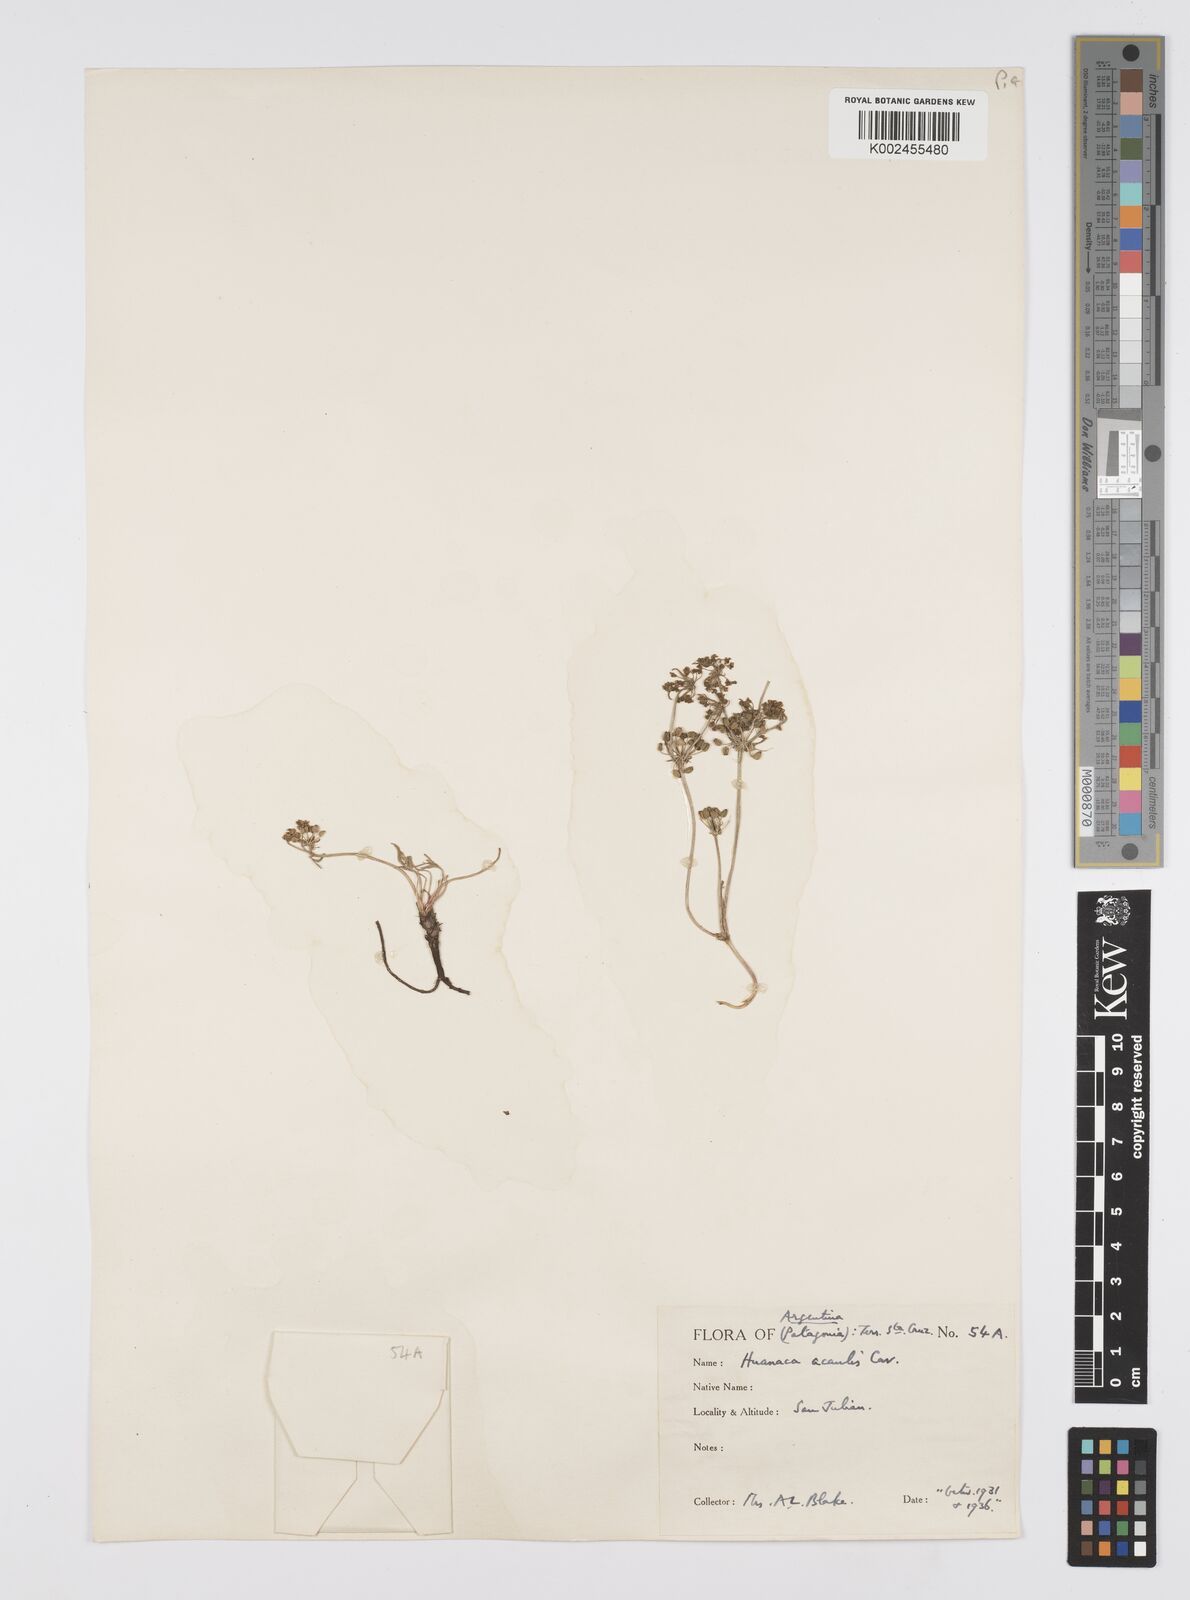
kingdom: Plantae
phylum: Tracheophyta
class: Magnoliopsida
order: Apiales
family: Apiaceae
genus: Azorella
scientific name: Azorella acaulis
